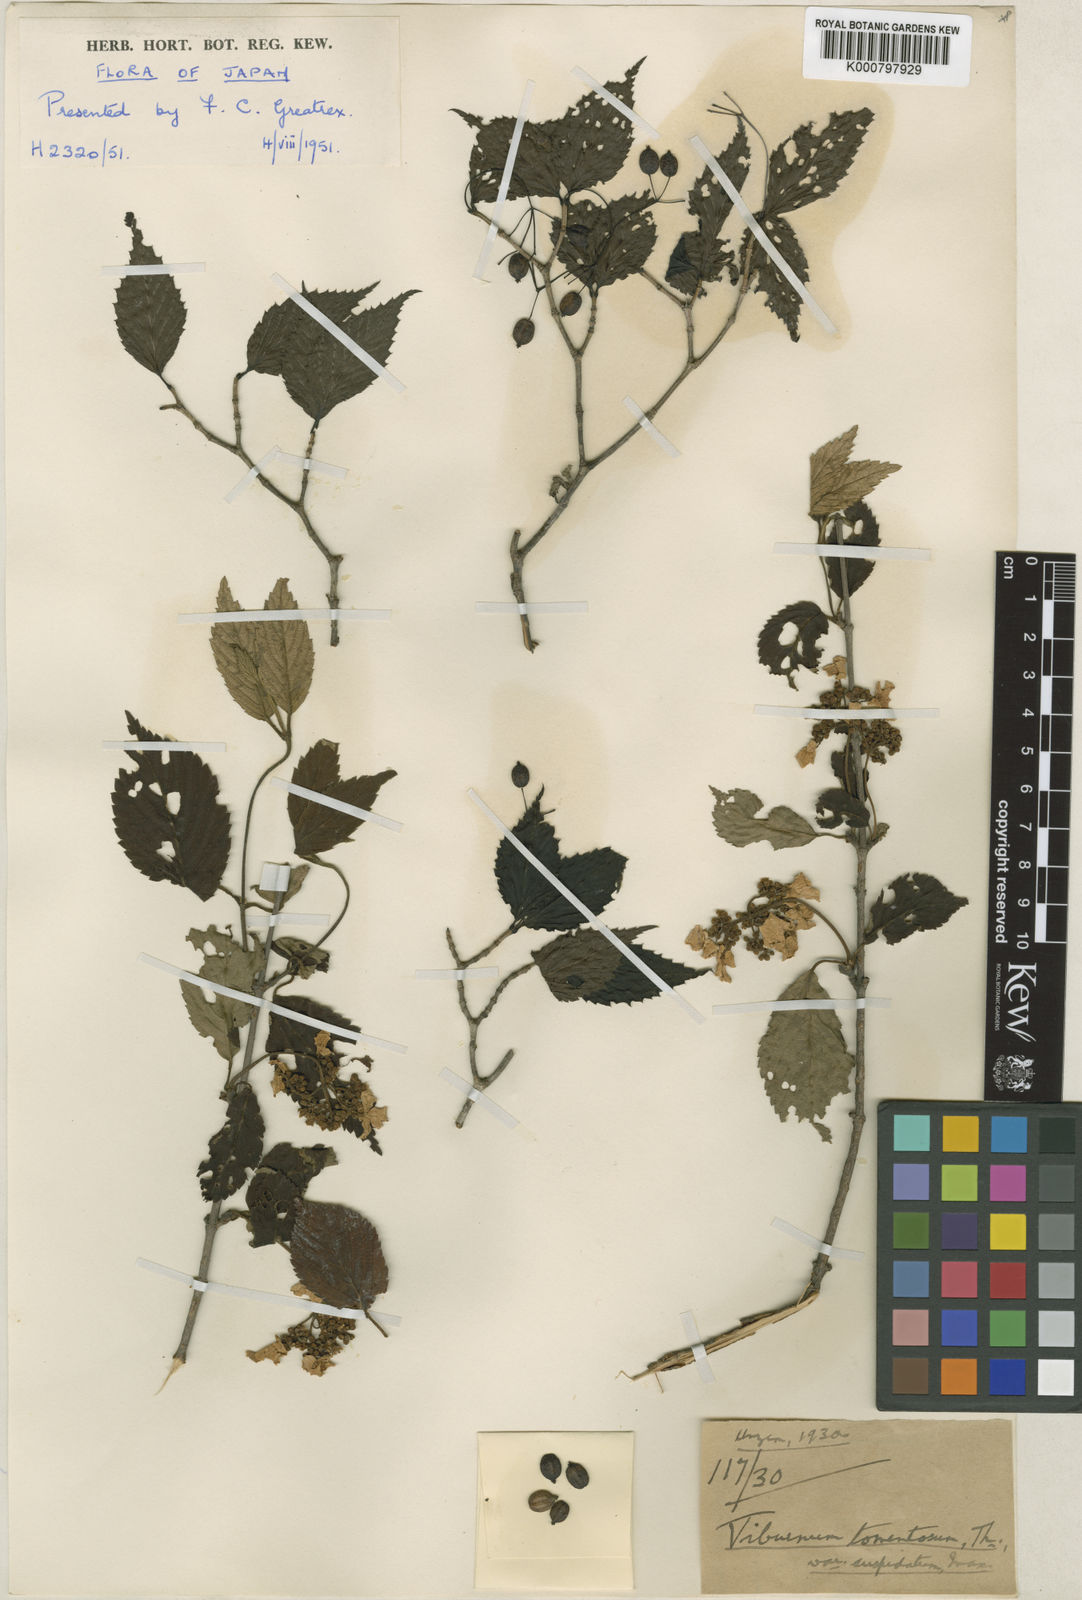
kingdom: Plantae
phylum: Tracheophyta
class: Magnoliopsida
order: Dipsacales
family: Viburnaceae
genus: Viburnum
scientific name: Viburnum
